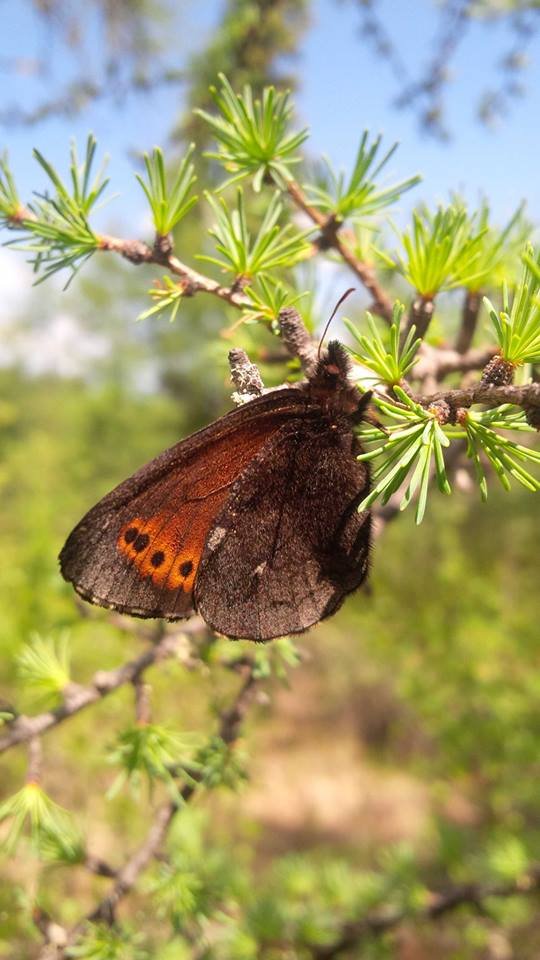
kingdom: Animalia
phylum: Arthropoda
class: Insecta
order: Lepidoptera
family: Nymphalidae
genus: Erebia
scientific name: Erebia disa
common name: Taiga Alpine
